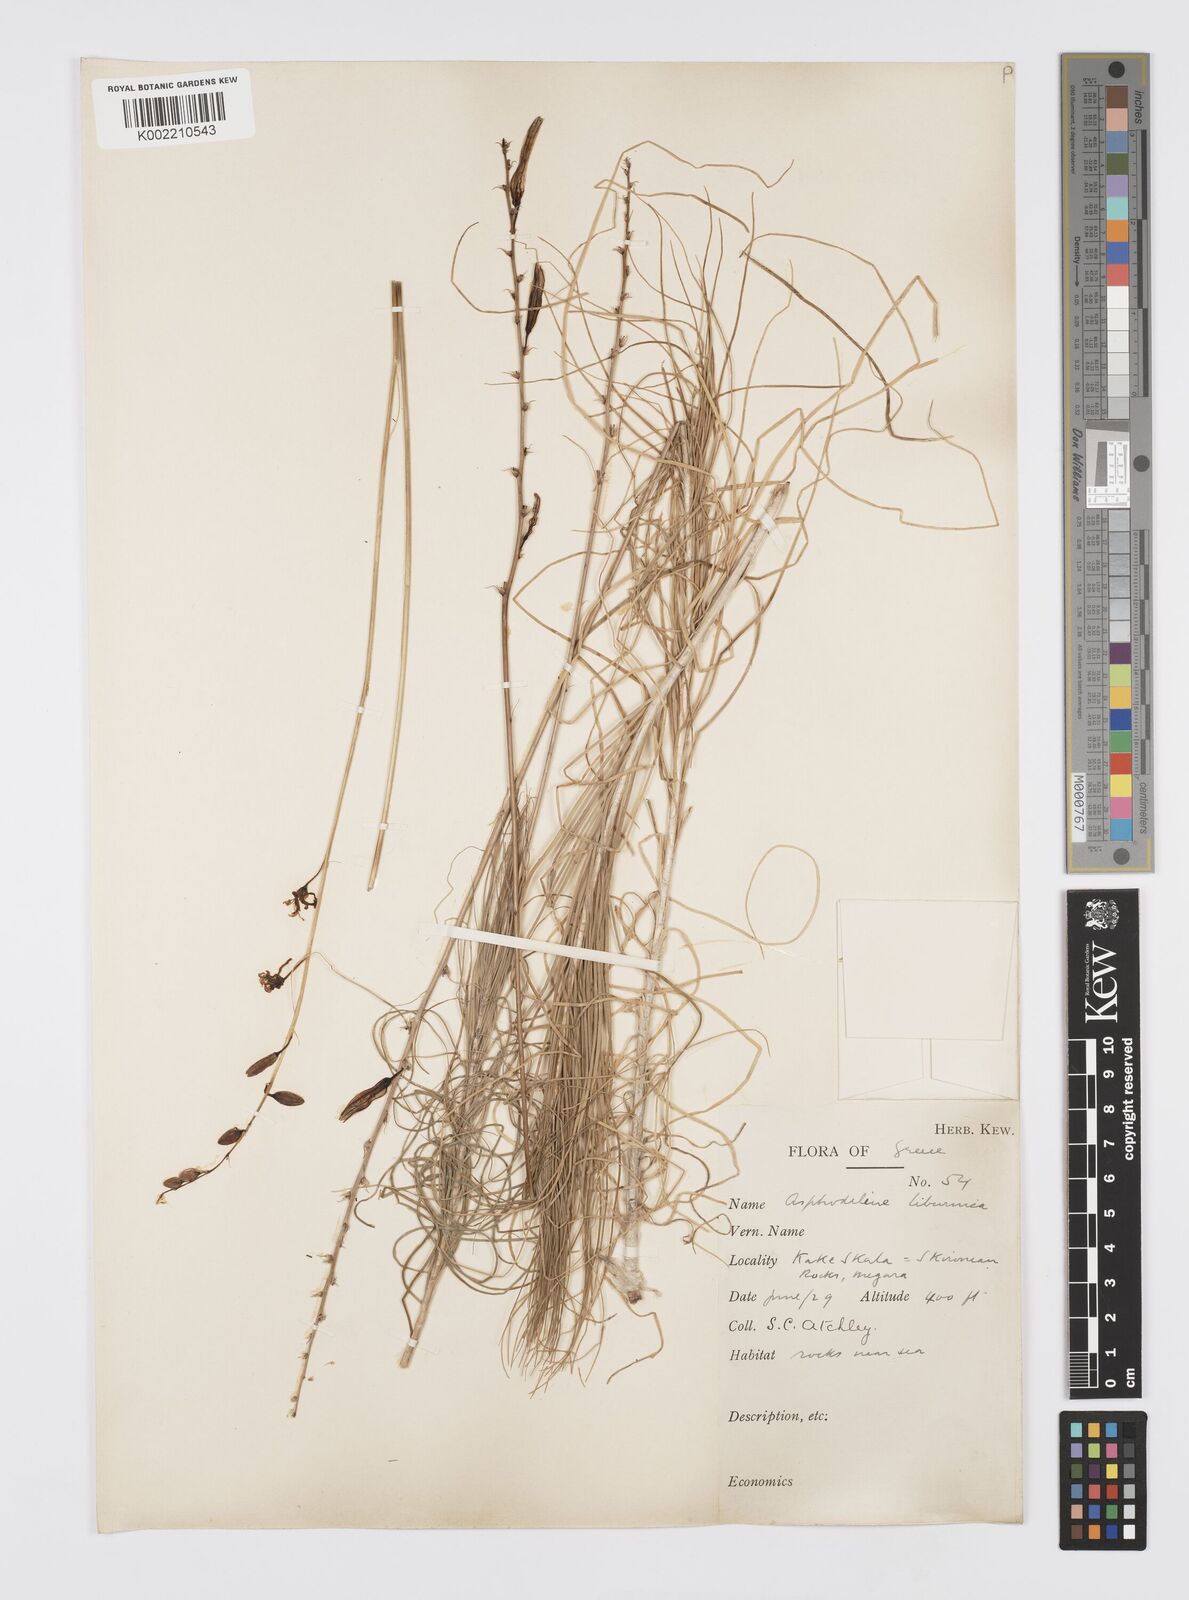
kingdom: Plantae
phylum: Tracheophyta
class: Liliopsida
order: Asparagales
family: Asphodelaceae
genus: Asphodeline
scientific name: Asphodeline liburnica
